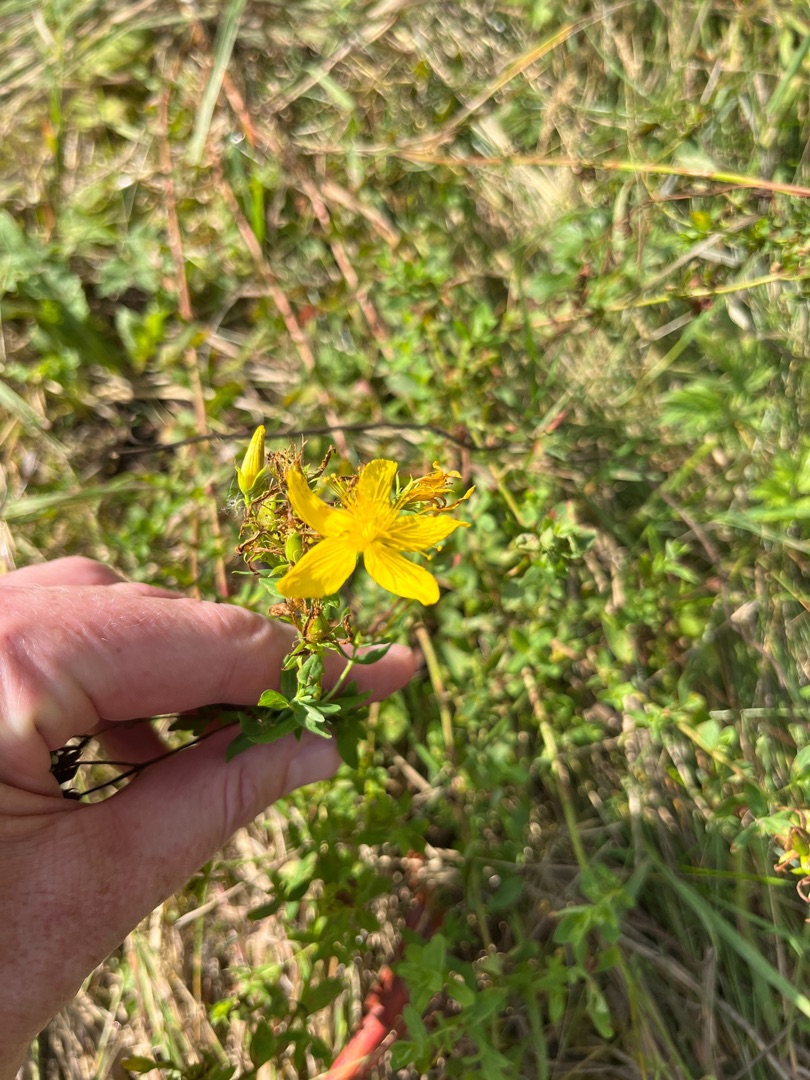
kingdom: Plantae
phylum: Tracheophyta
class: Magnoliopsida
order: Malpighiales
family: Hypericaceae
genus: Hypericum
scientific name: Hypericum perforatum
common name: Prikbladet perikon
